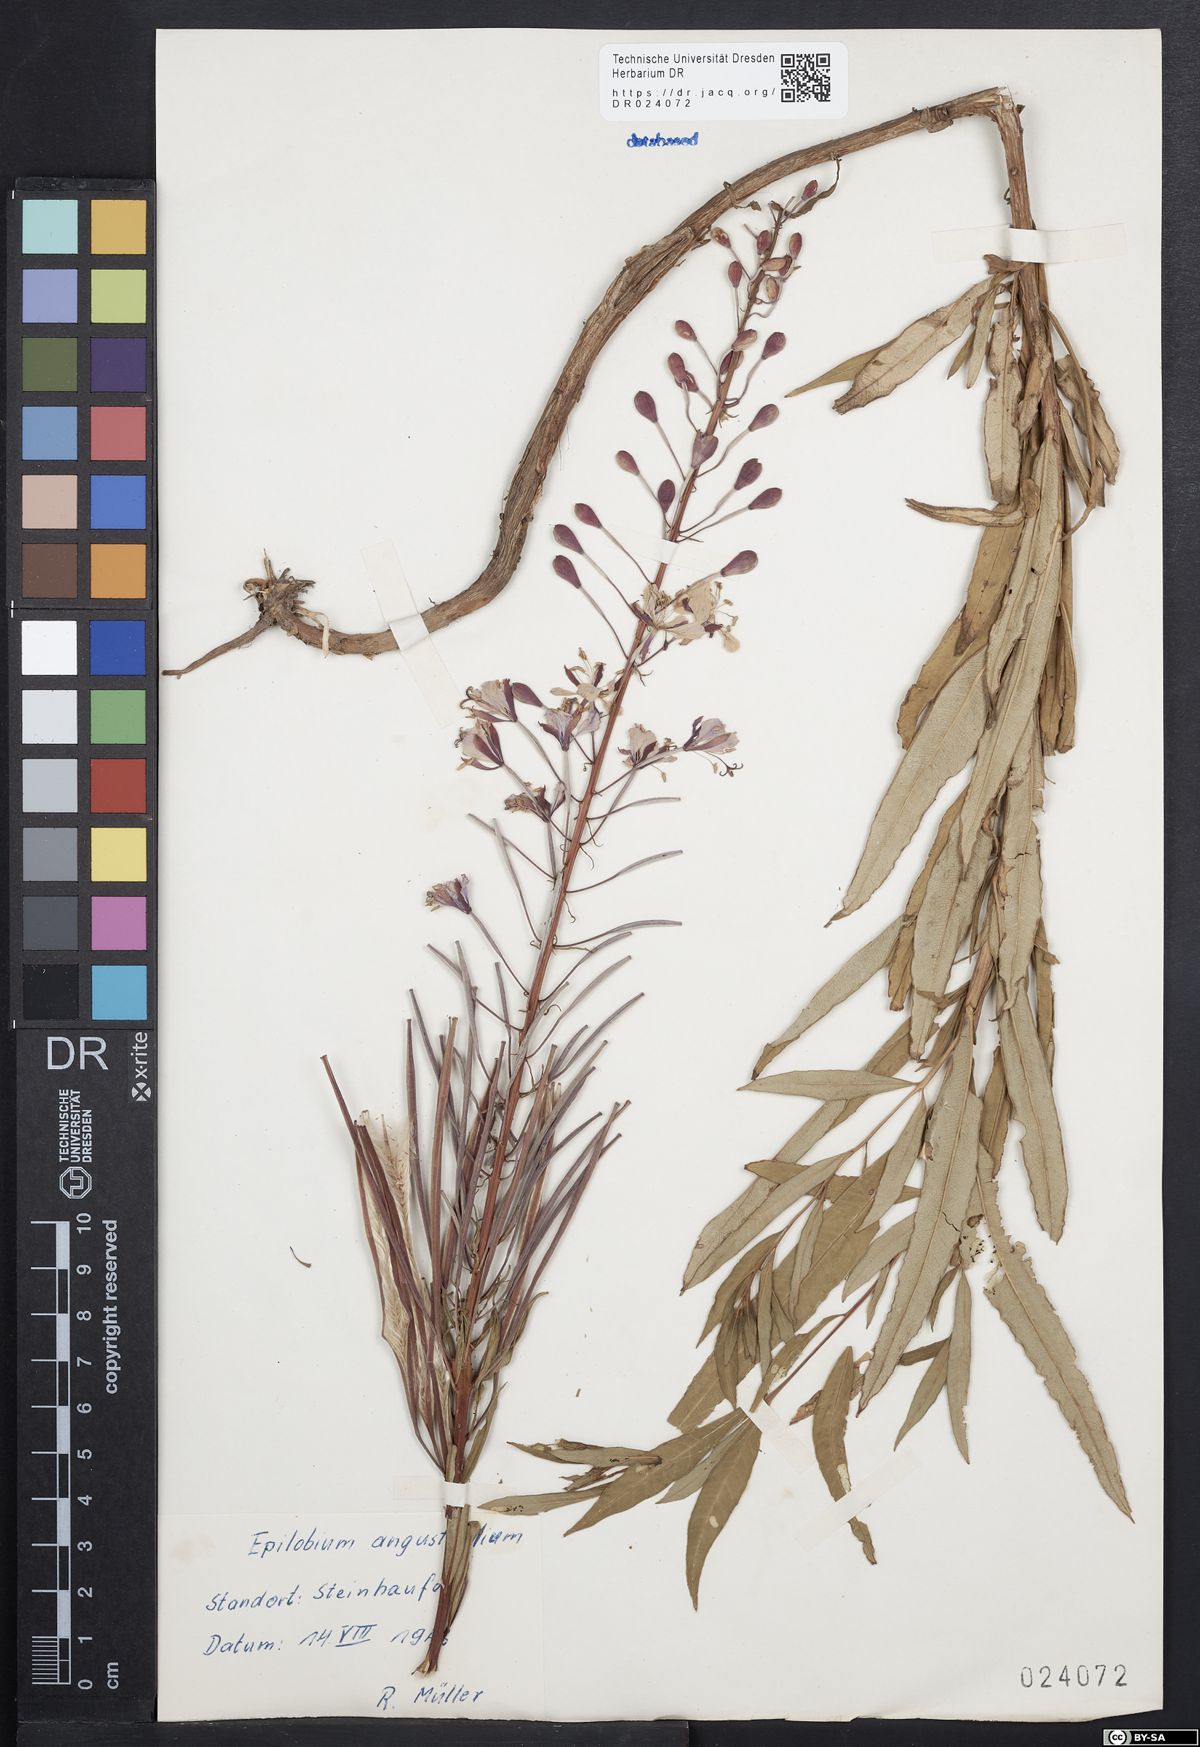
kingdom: Plantae
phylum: Tracheophyta
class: Magnoliopsida
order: Myrtales
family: Onagraceae
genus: Chamaenerion
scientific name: Chamaenerion angustifolium
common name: Fireweed
